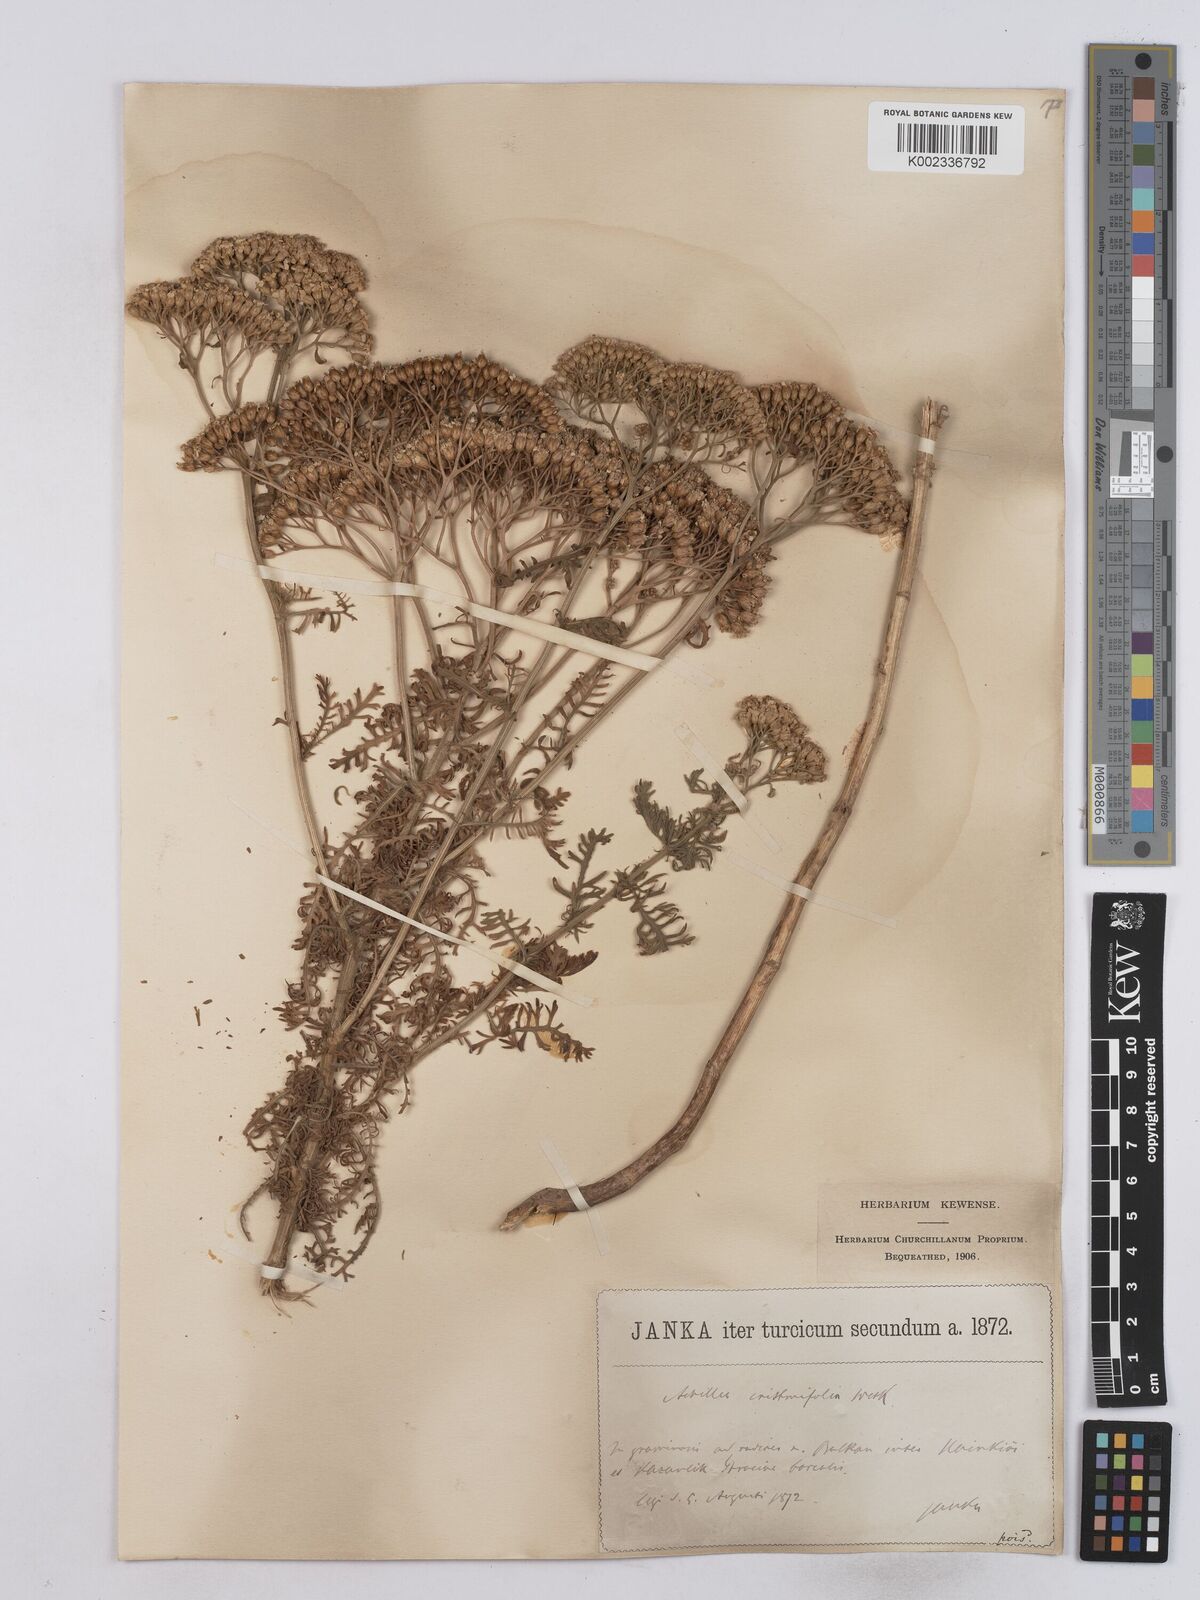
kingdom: Plantae
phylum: Tracheophyta
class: Magnoliopsida
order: Asterales
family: Asteraceae
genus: Achillea
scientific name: Achillea crithmifolia
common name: Yarrow
